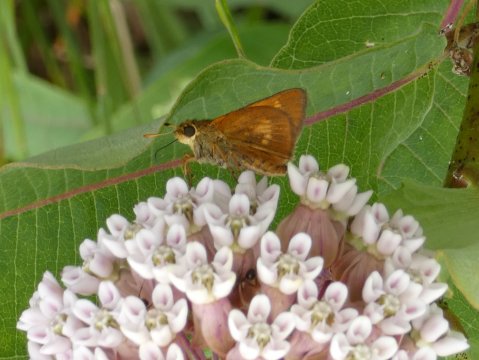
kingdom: Animalia
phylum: Arthropoda
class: Insecta
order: Lepidoptera
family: Hesperiidae
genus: Euphyes
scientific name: Euphyes conspicua
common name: Black Dash
